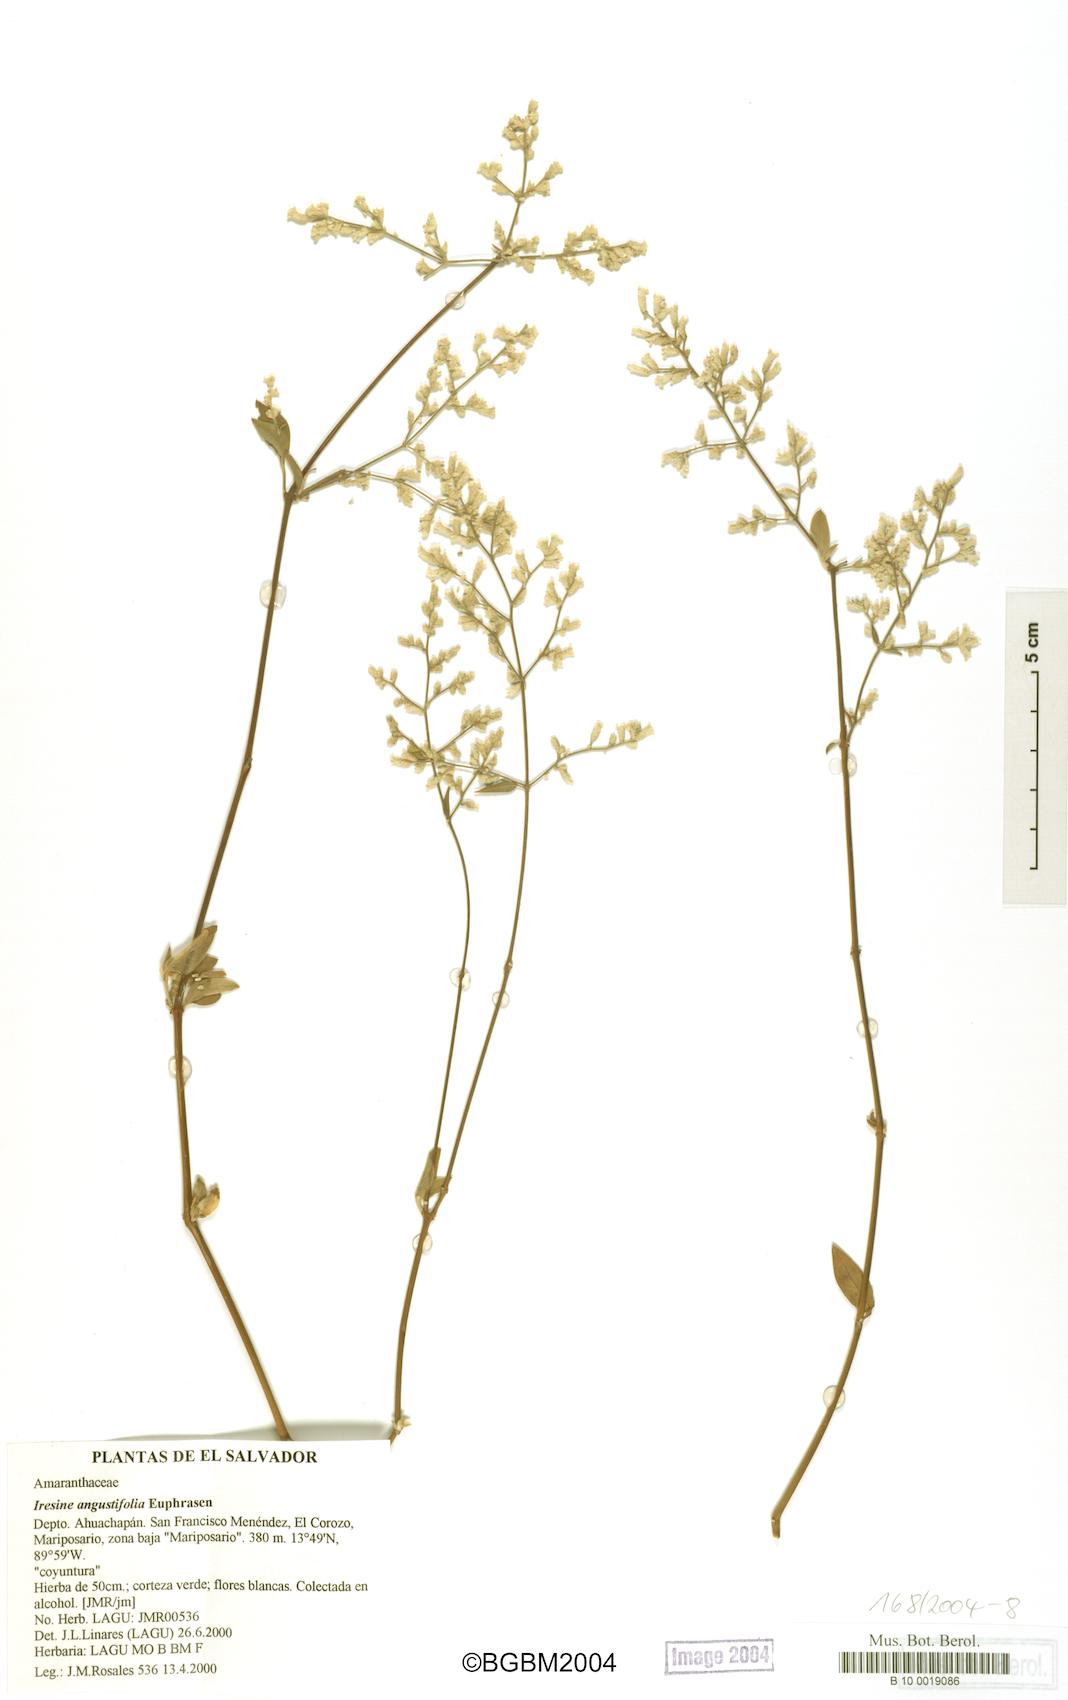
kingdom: Plantae
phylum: Tracheophyta
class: Magnoliopsida
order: Caryophyllales
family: Amaranthaceae
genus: Iresine
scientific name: Iresine angustifolia
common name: White snowplant
